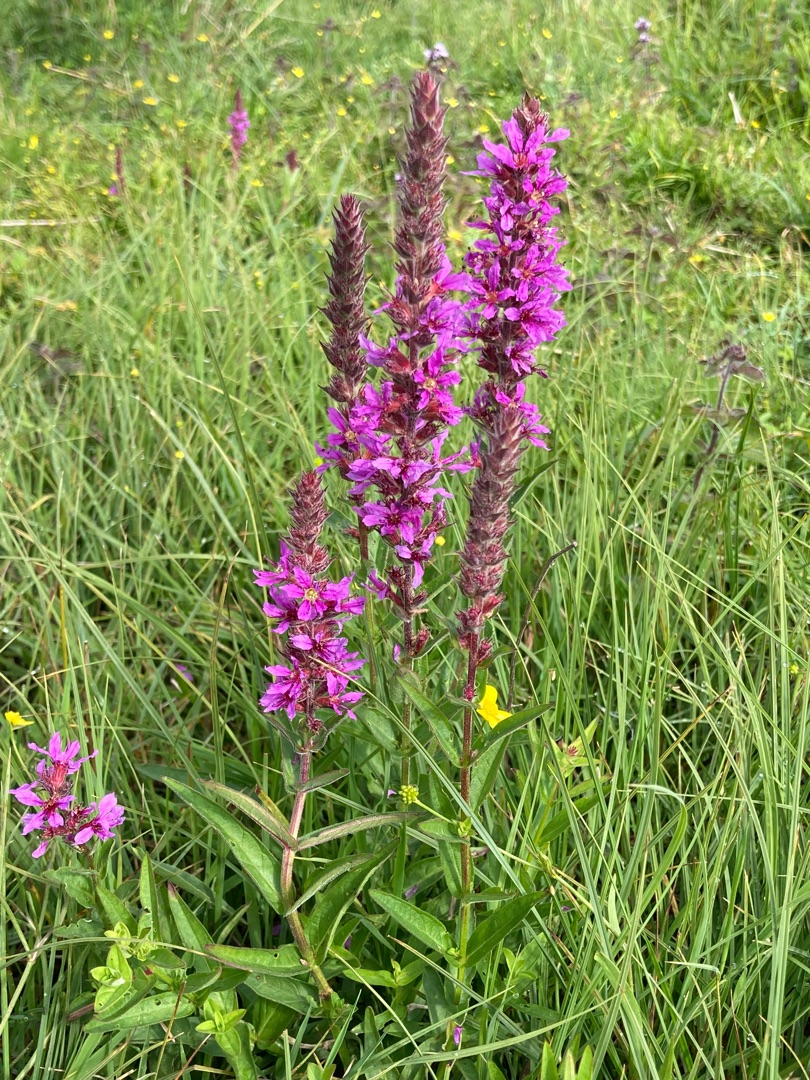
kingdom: Plantae
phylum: Tracheophyta
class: Magnoliopsida
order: Myrtales
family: Lythraceae
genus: Lythrum
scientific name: Lythrum salicaria
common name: Kattehale
